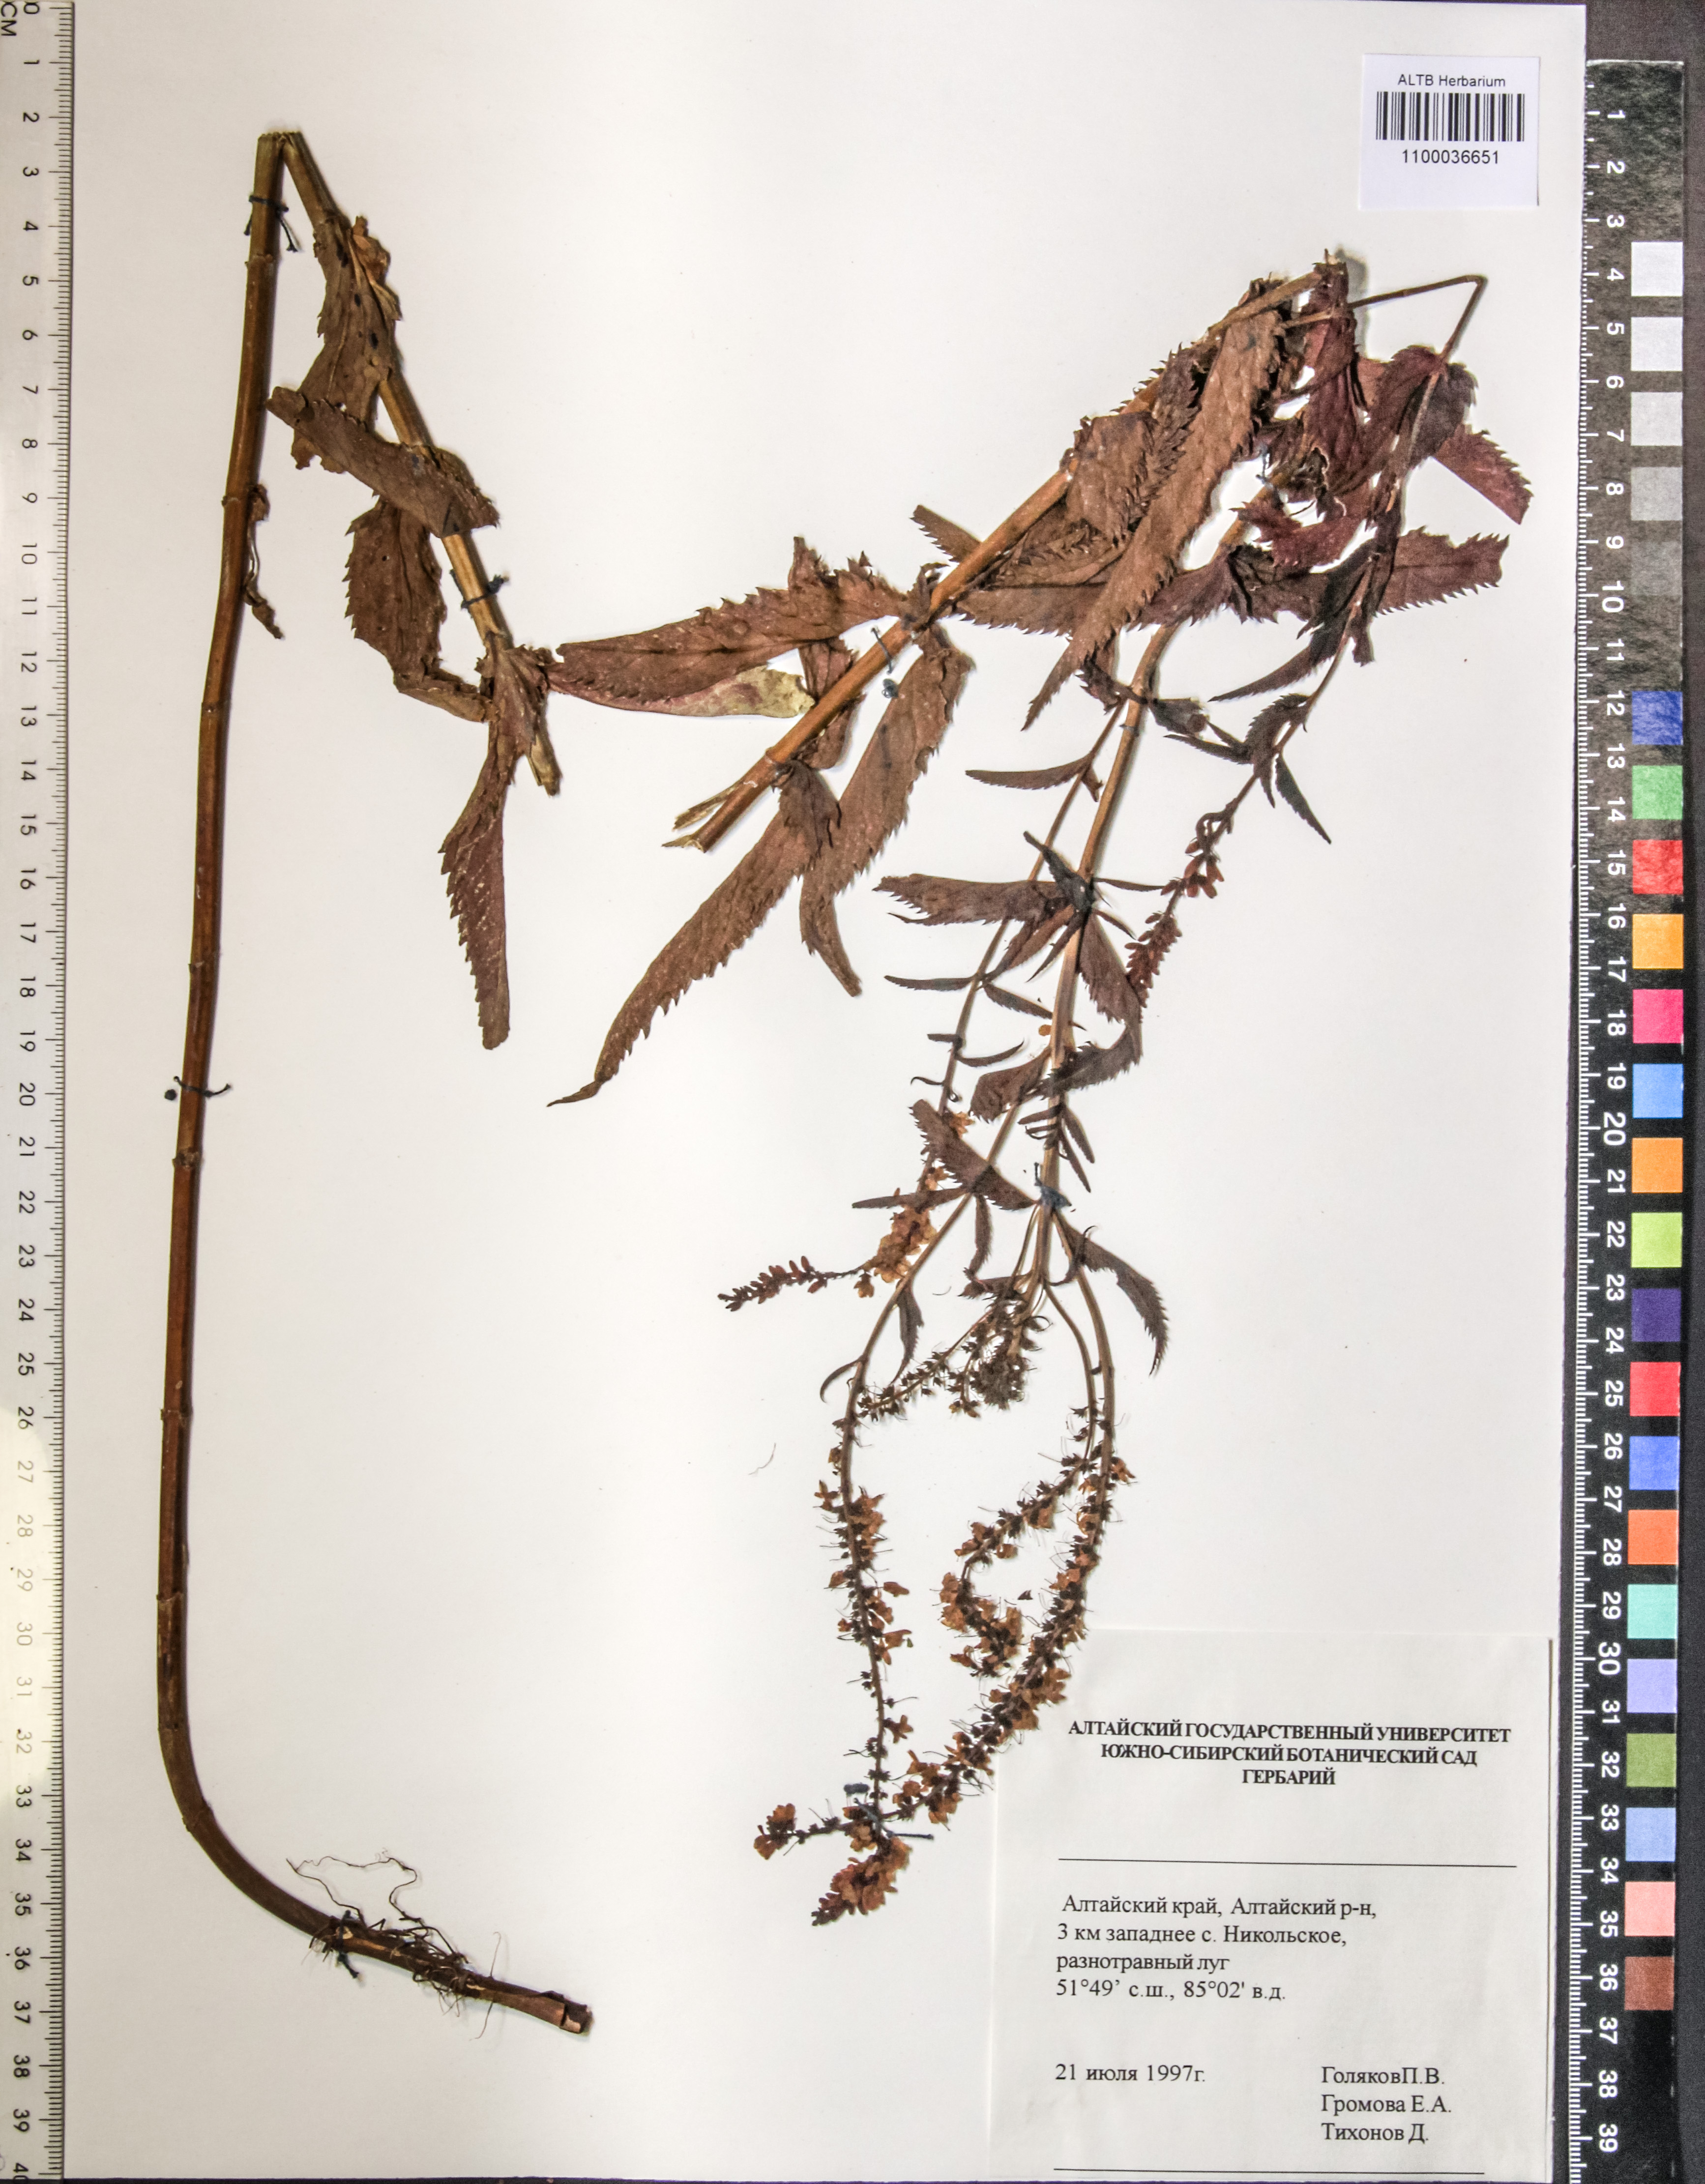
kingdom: Plantae
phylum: Tracheophyta
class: Magnoliopsida
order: Lamiales
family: Plantaginaceae
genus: Veronica
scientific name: Veronica longifolia
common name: Garden speedwell
